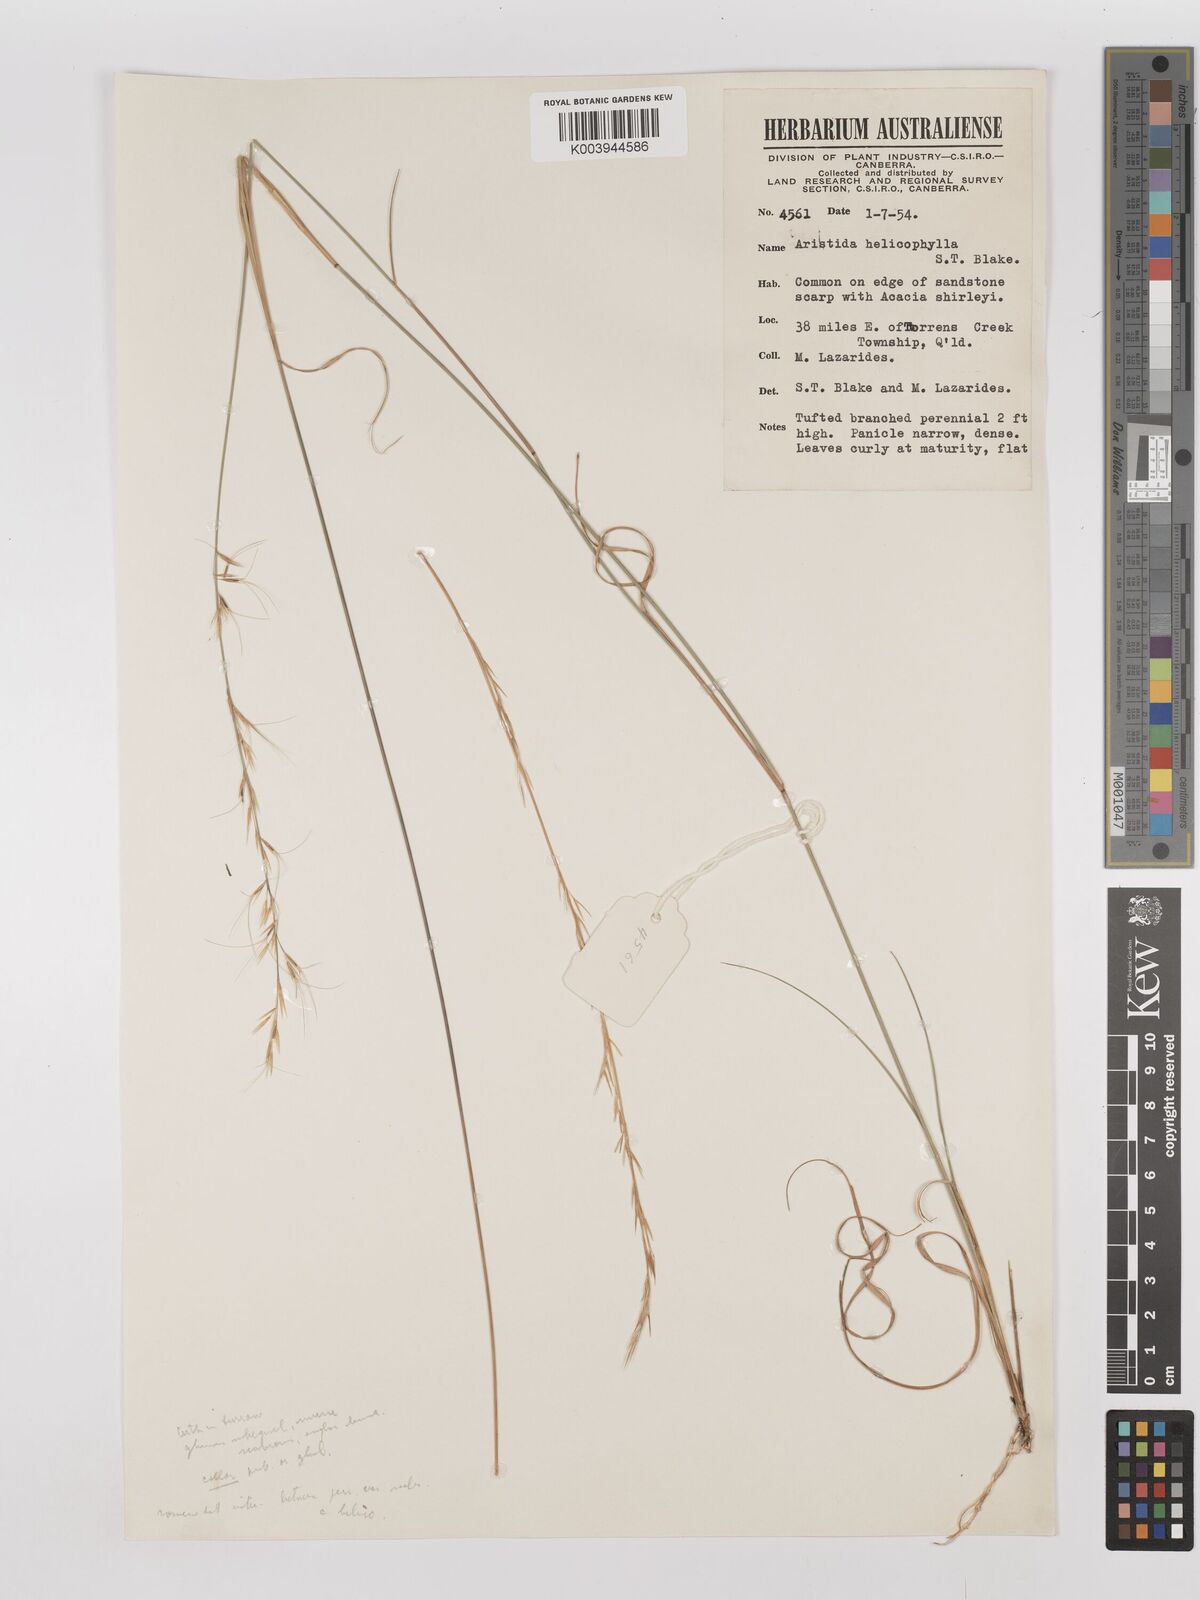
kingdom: Plantae
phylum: Tracheophyta
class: Liliopsida
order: Poales
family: Poaceae
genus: Aristida
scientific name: Aristida helicophylla
